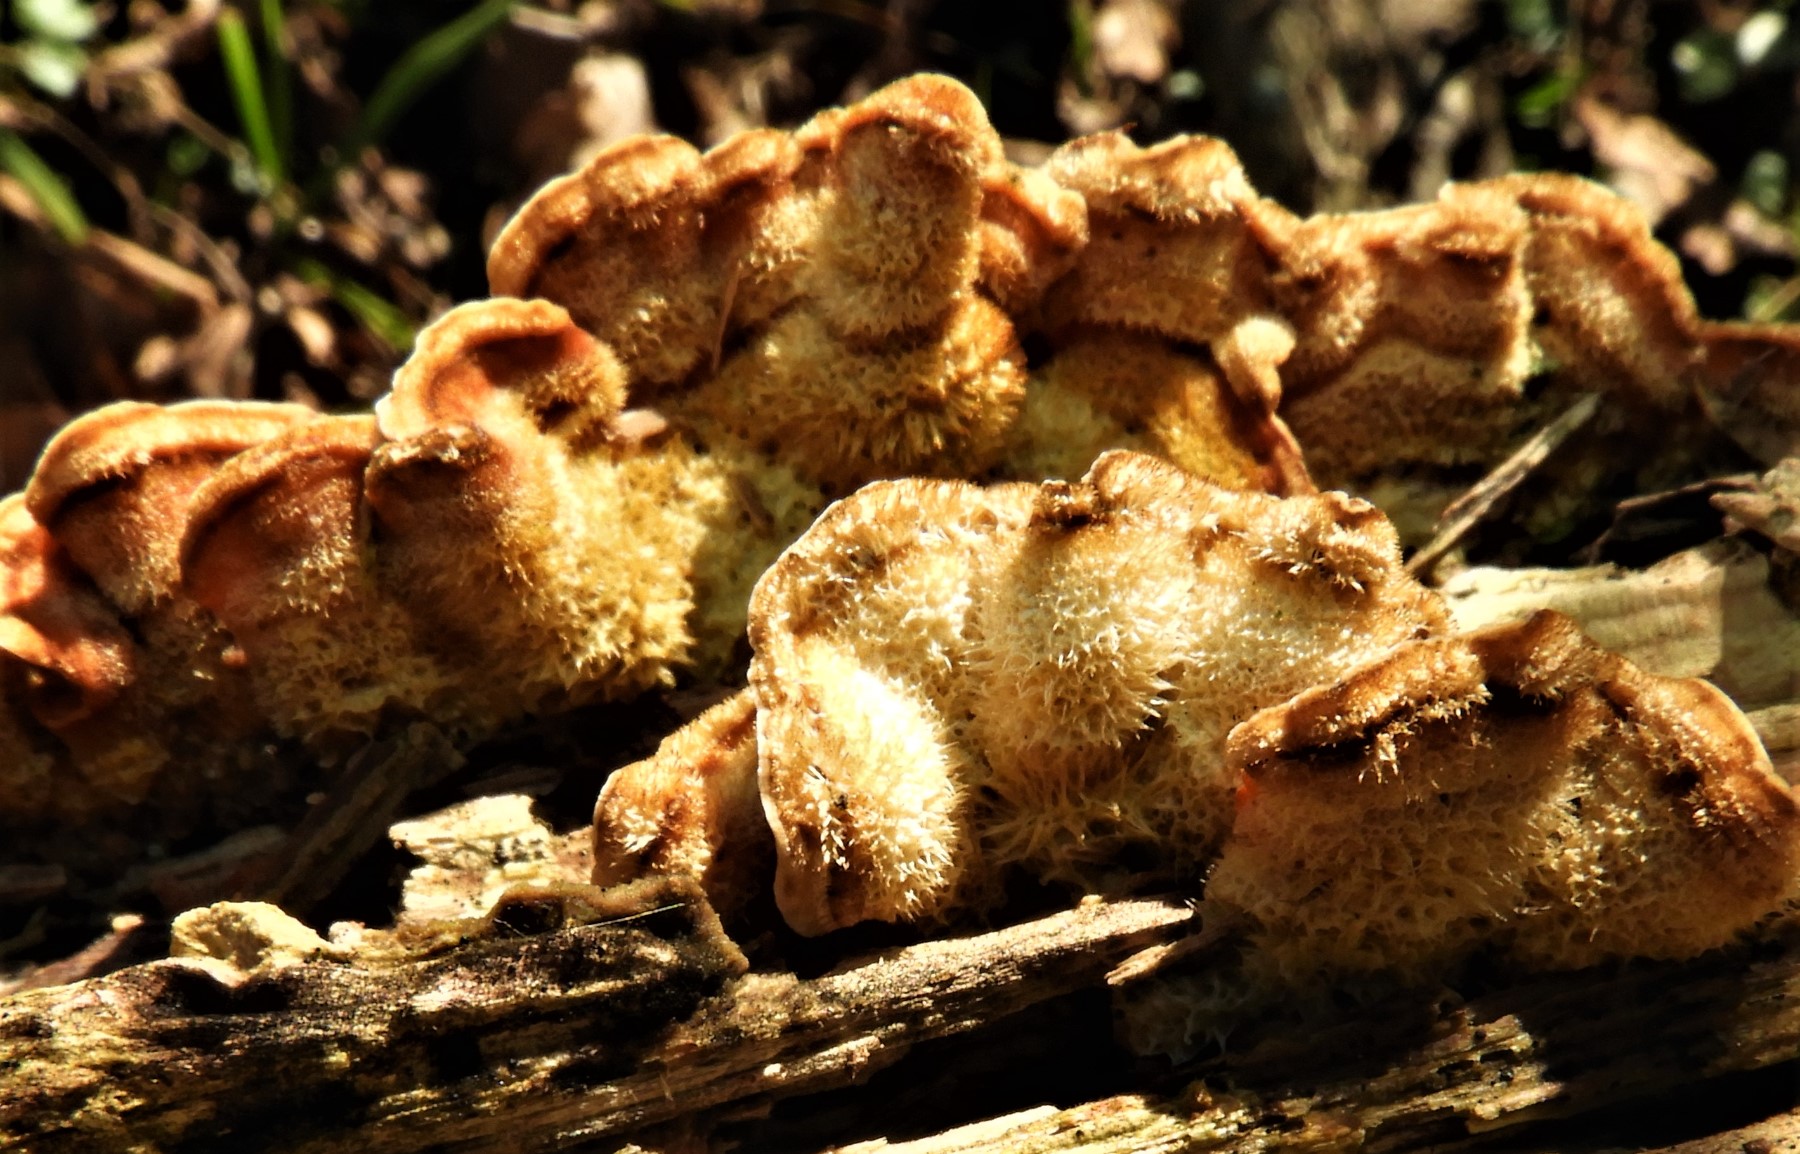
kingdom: Fungi
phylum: Basidiomycota
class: Agaricomycetes
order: Russulales
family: Stereaceae
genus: Stereum
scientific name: Stereum hirsutum
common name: håret lædersvamp
